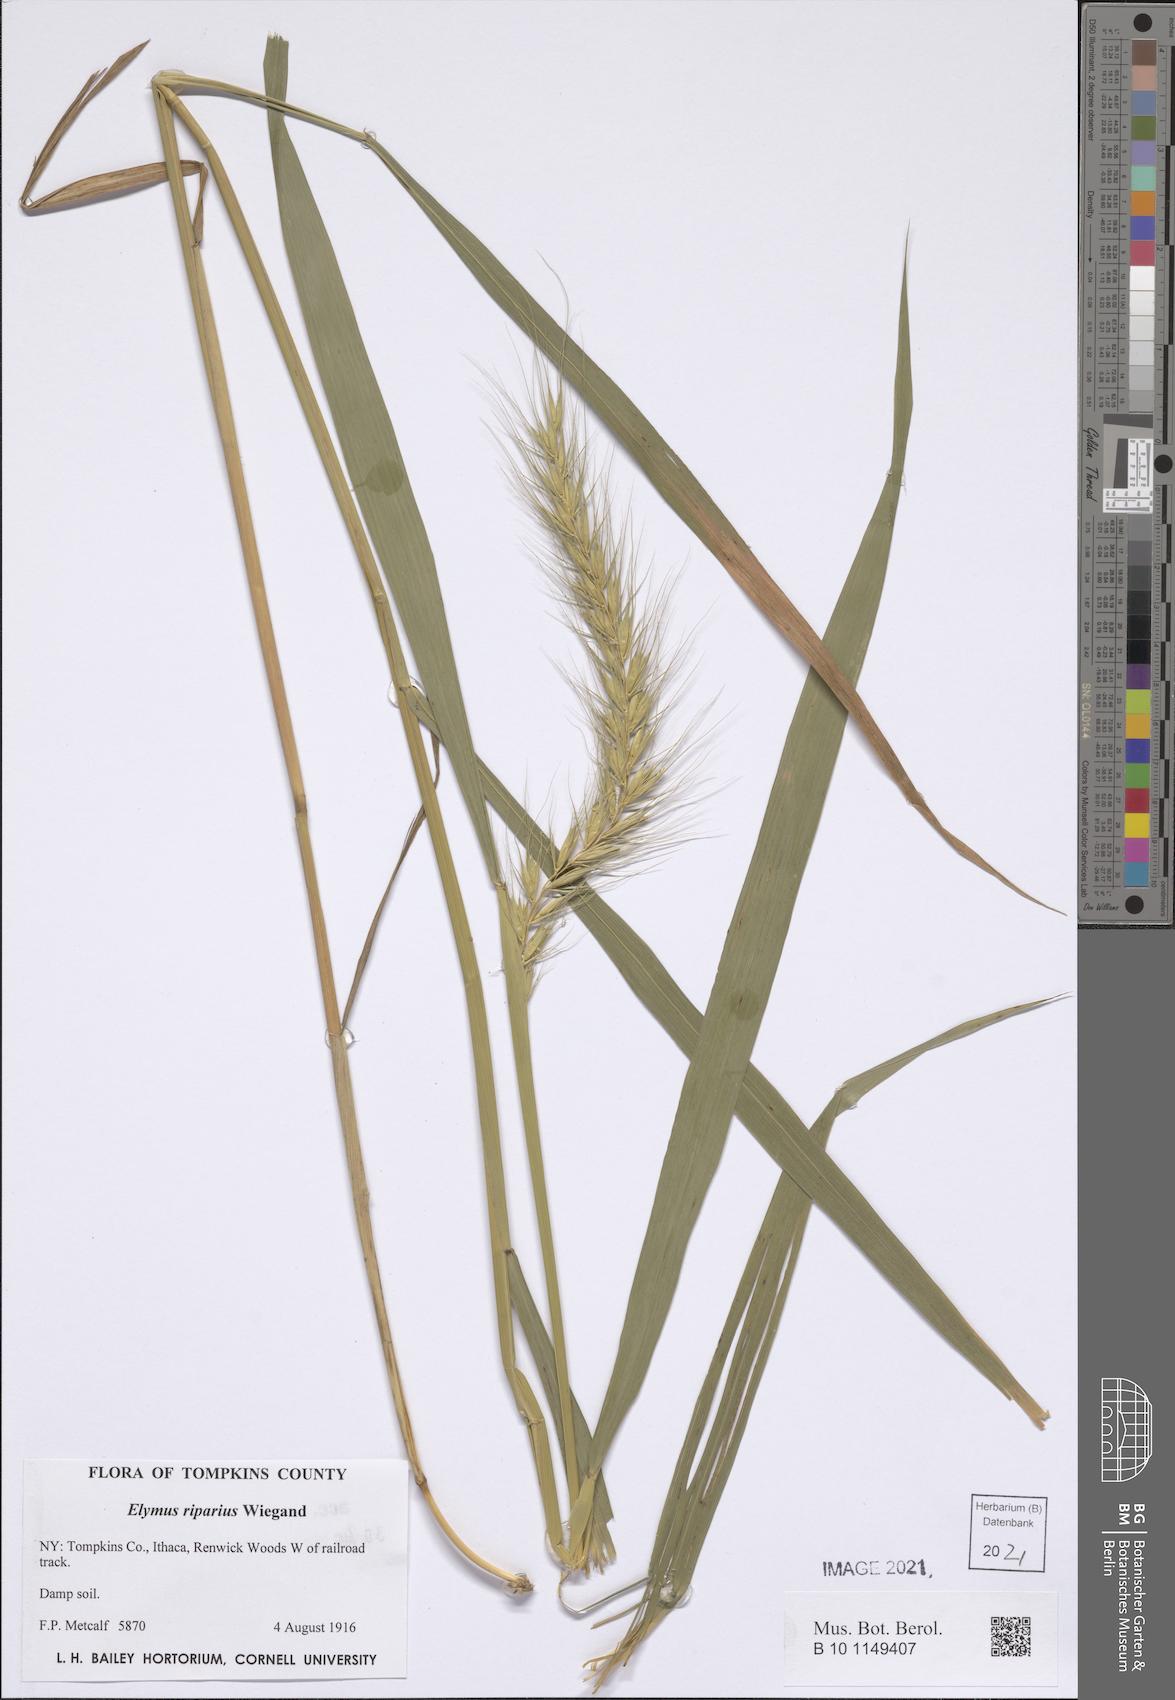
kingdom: Plantae
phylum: Tracheophyta
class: Liliopsida
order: Poales
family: Poaceae
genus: Elymus
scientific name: Elymus riparius
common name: Eastern riverbank wild rye
